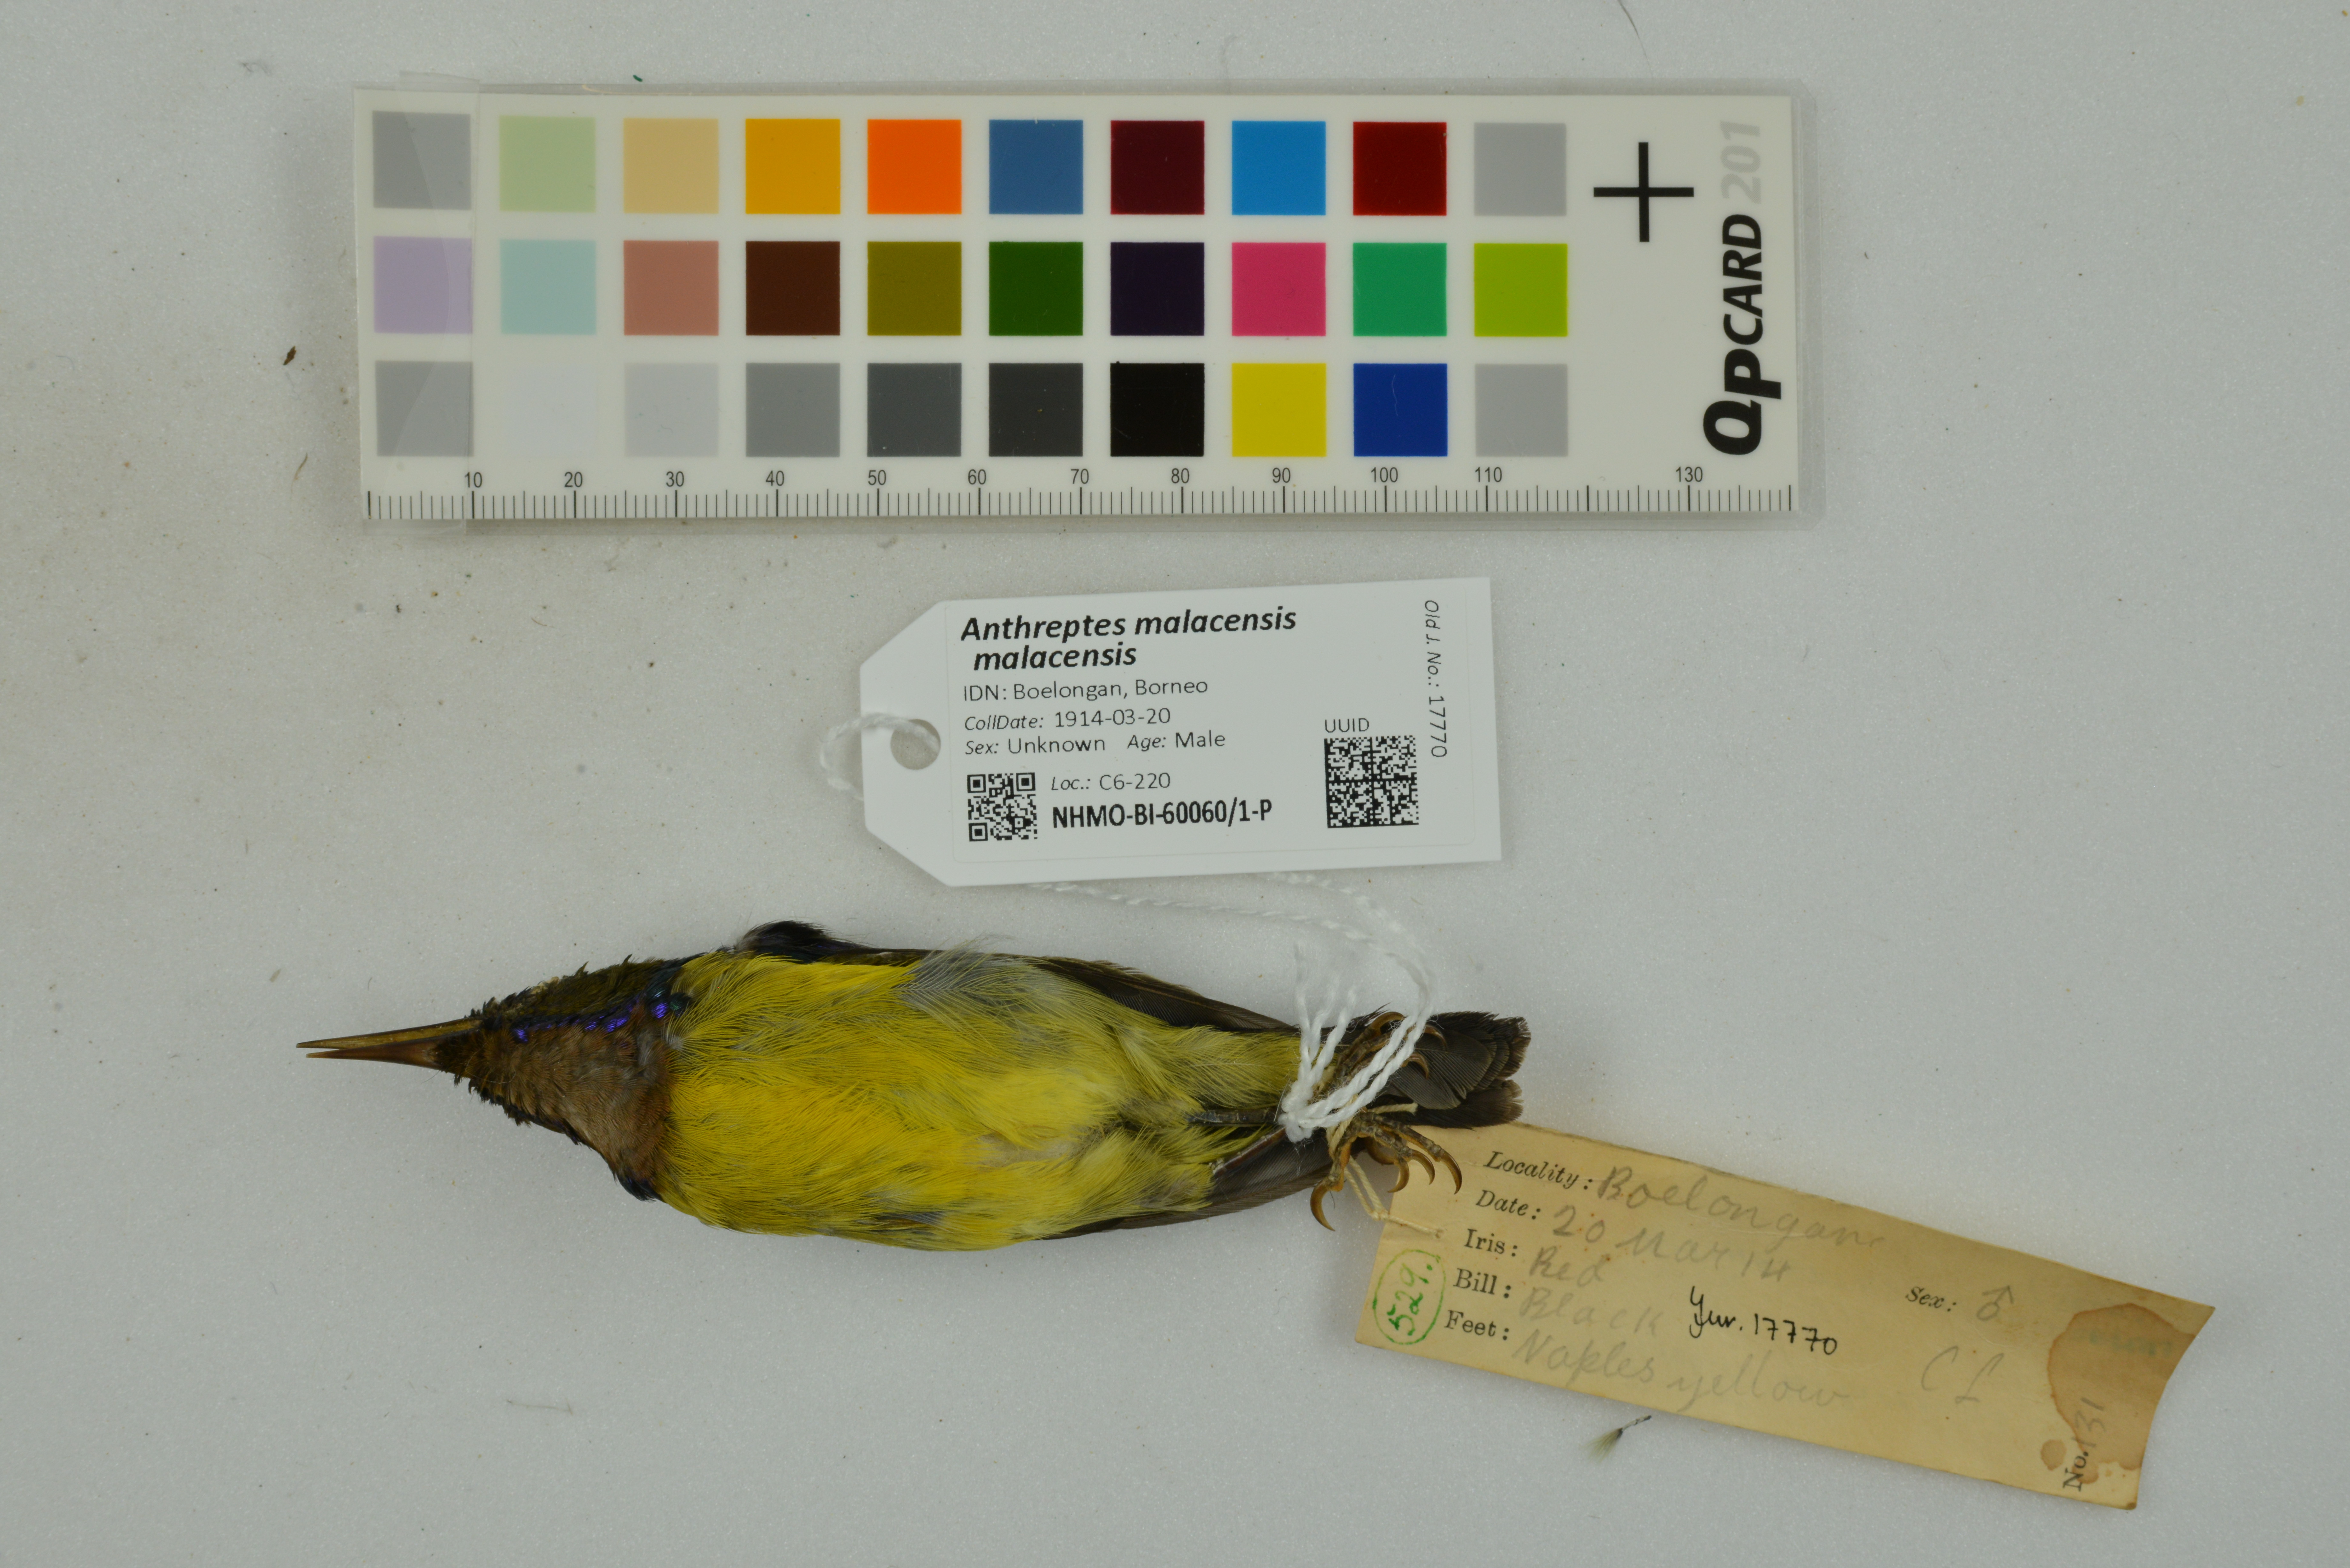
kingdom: Animalia
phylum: Chordata
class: Aves
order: Passeriformes
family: Nectariniidae
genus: Anthreptes
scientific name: Anthreptes malacensis
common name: Brown-throated sunbird
